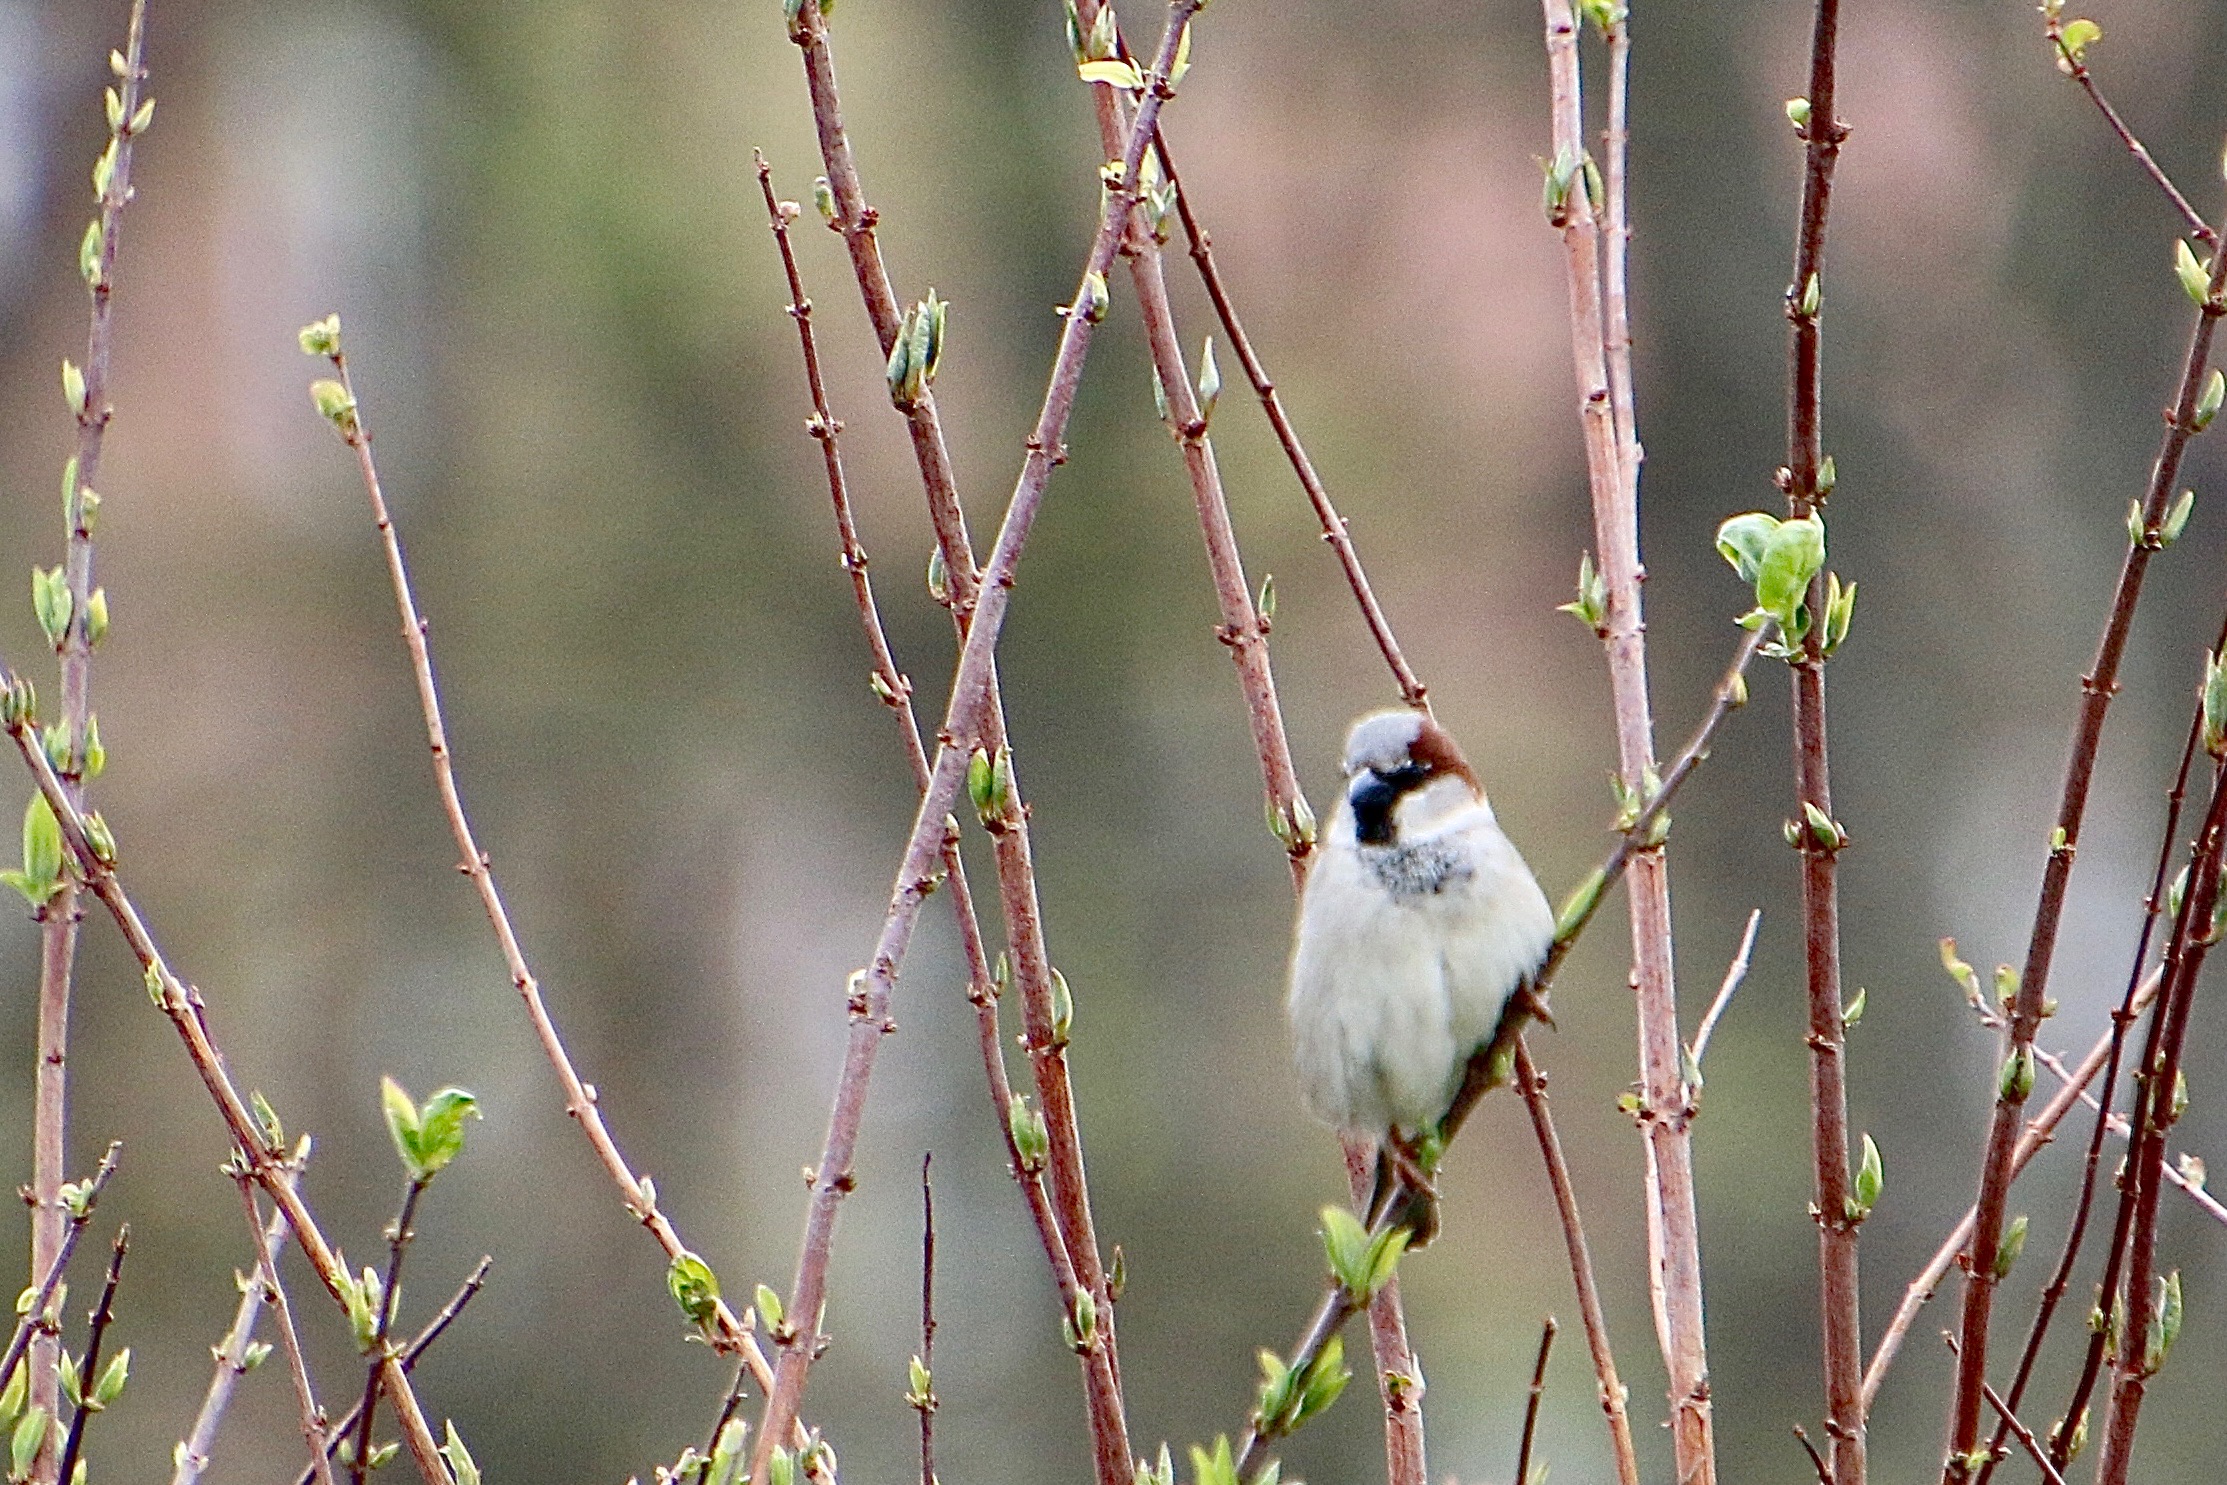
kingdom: Animalia
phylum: Chordata
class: Aves
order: Passeriformes
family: Passeridae
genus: Passer
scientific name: Passer domesticus
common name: Gråspurv
